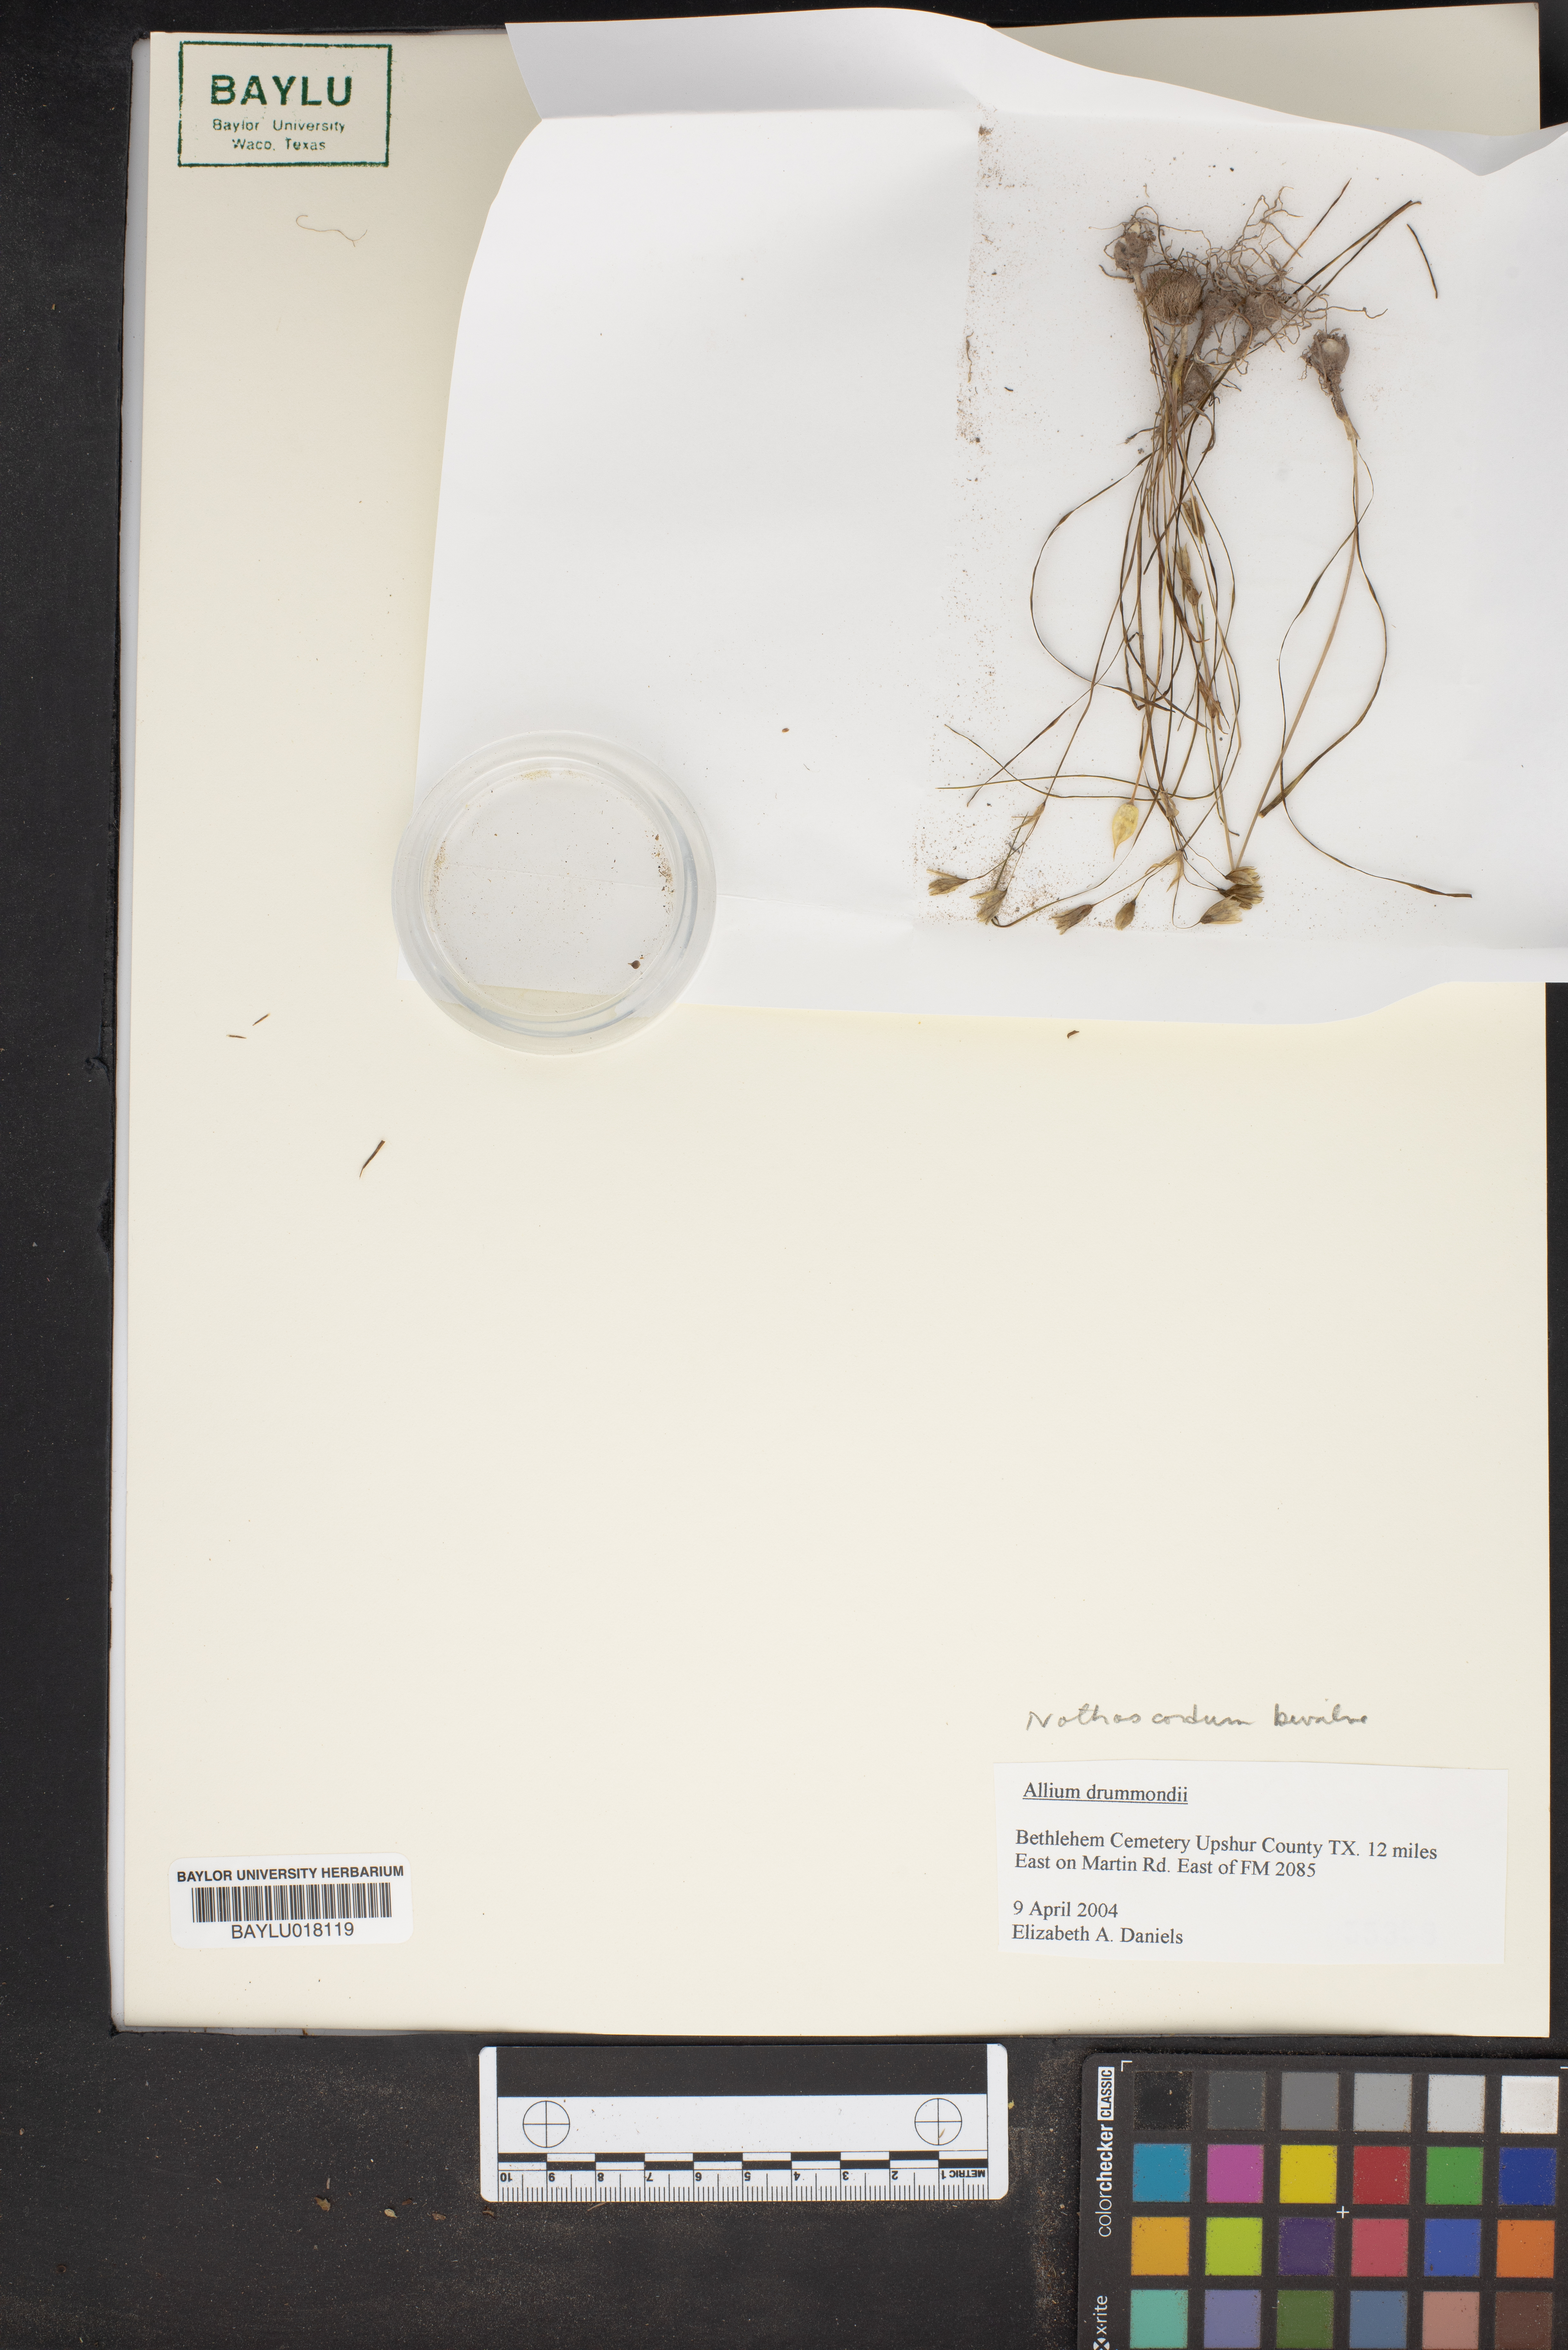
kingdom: Plantae
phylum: Tracheophyta
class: Liliopsida
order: Asparagales
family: Amaryllidaceae
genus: Nothoscordum
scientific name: Nothoscordum bivalve
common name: Crow-poison
